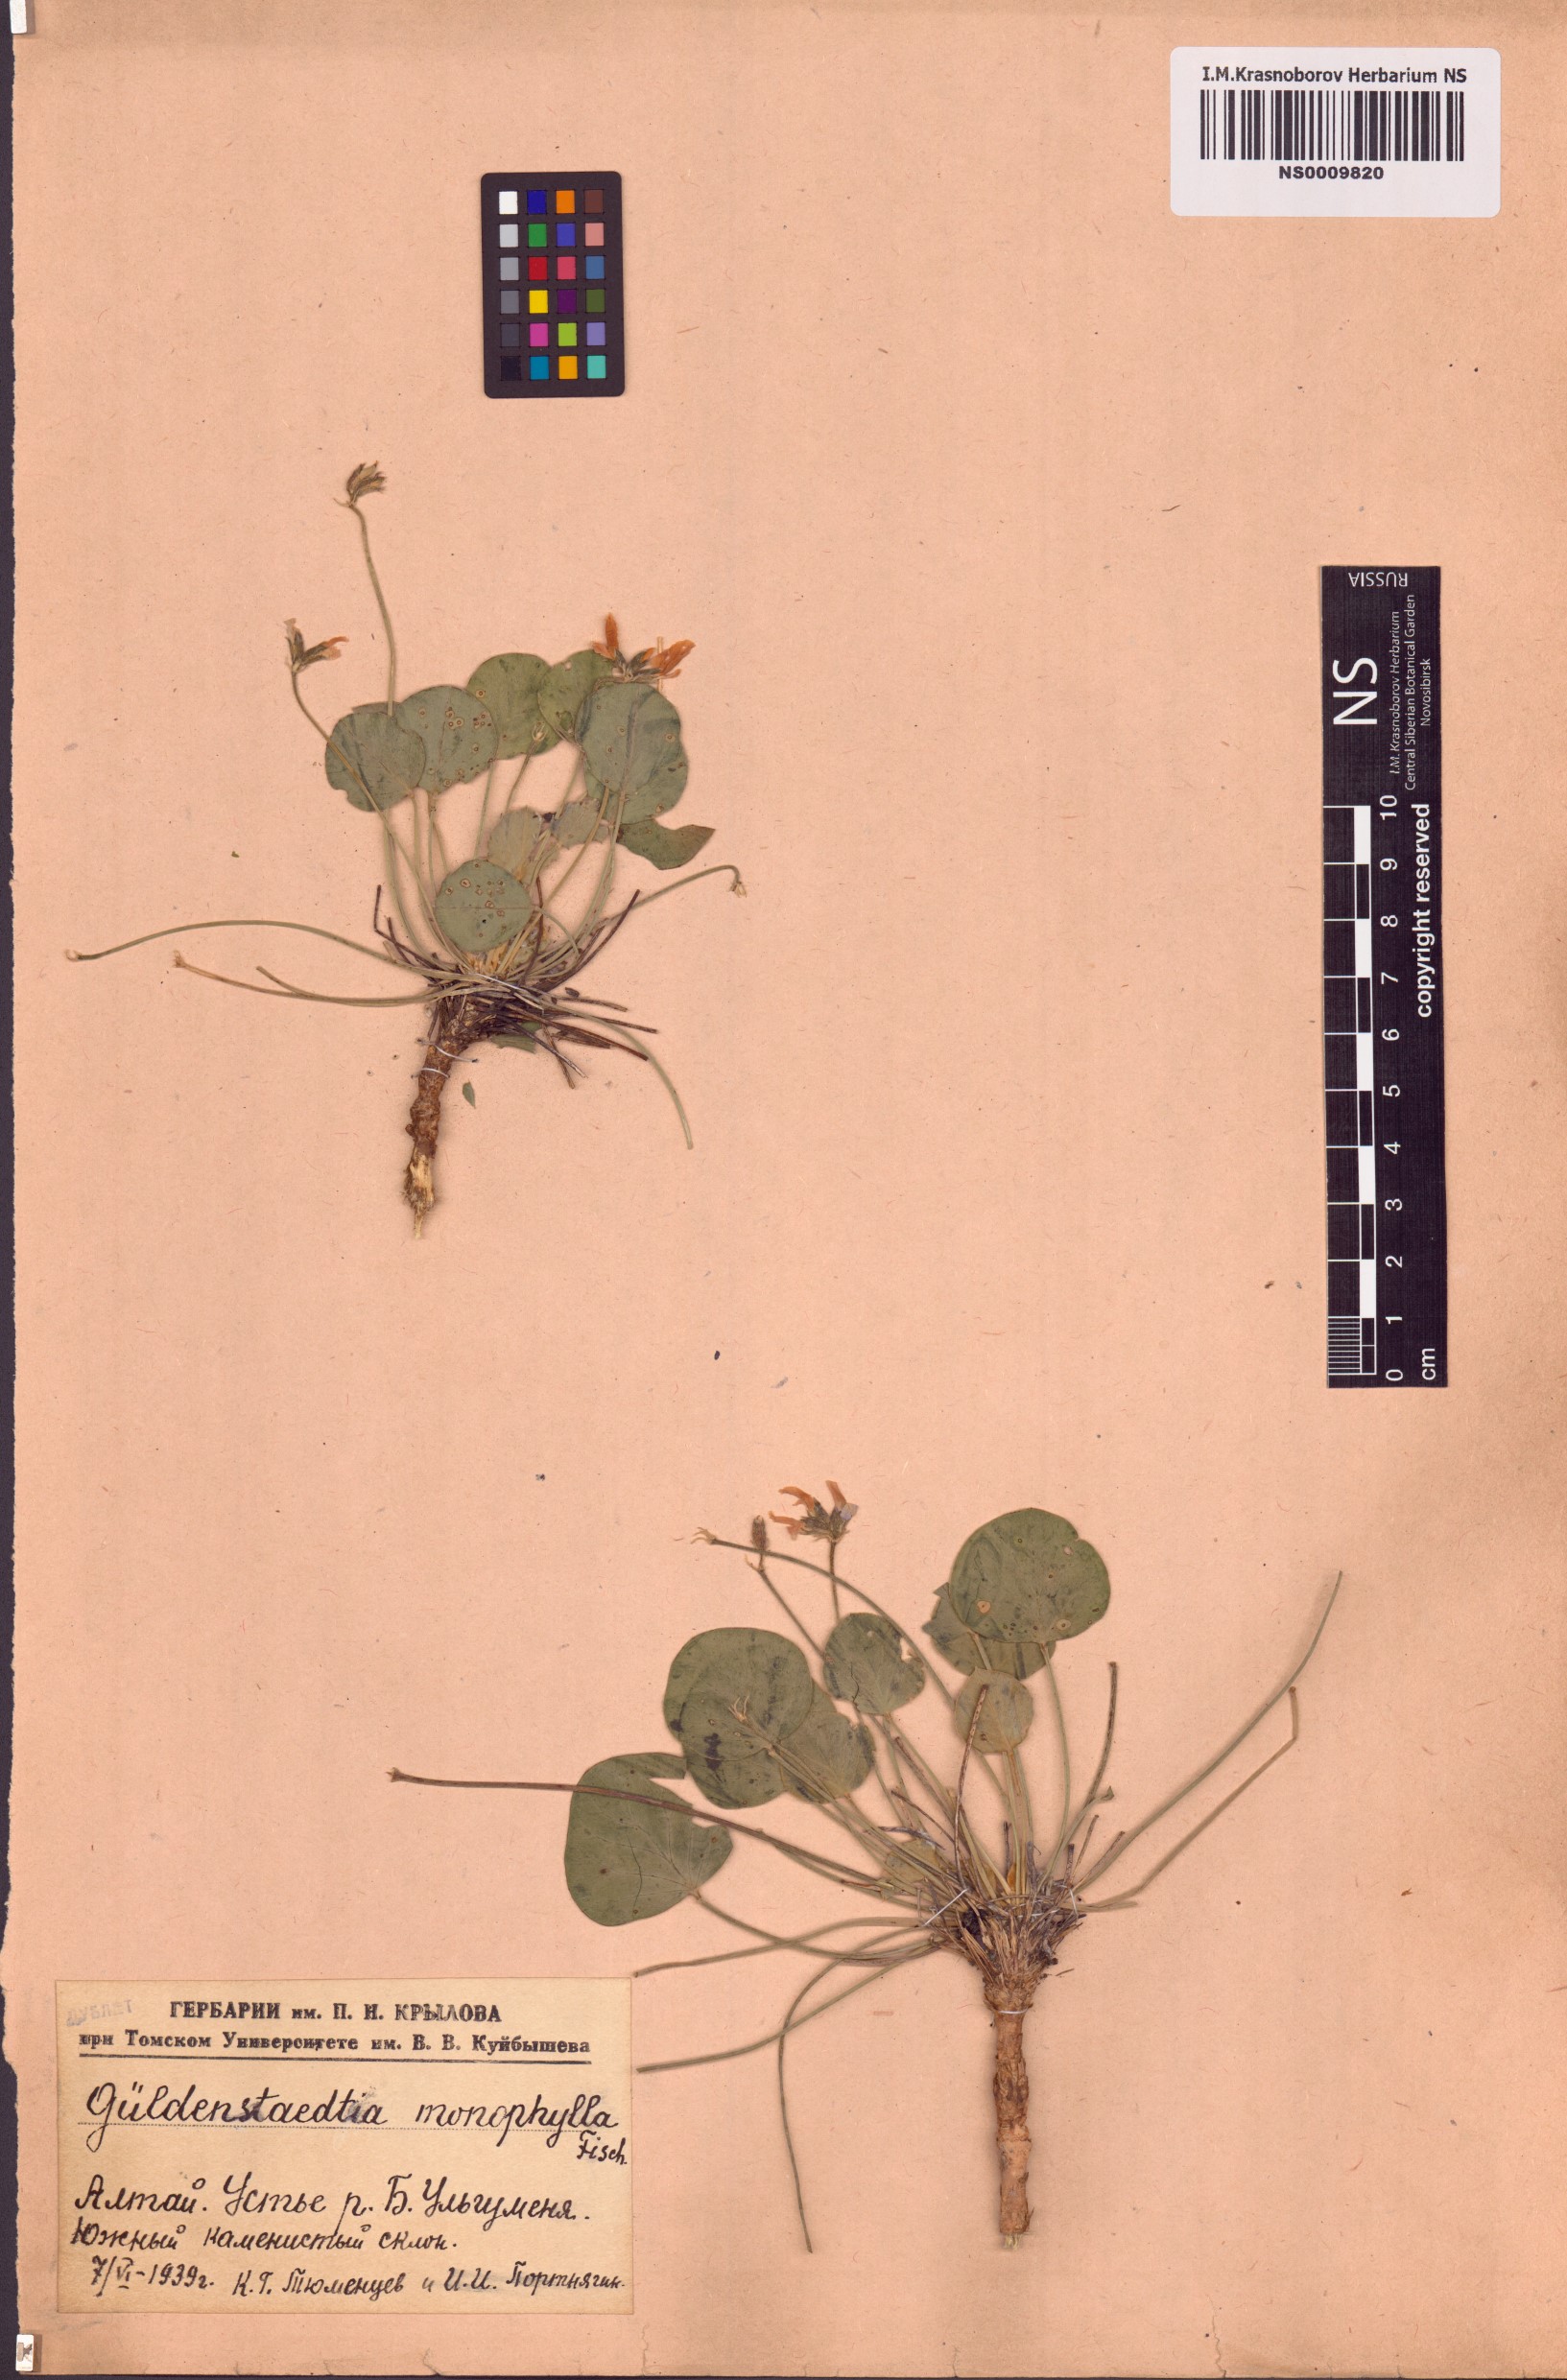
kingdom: Plantae
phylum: Tracheophyta
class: Magnoliopsida
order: Fabales
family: Fabaceae
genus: Gueldenstaedtia
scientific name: Gueldenstaedtia monophylla
